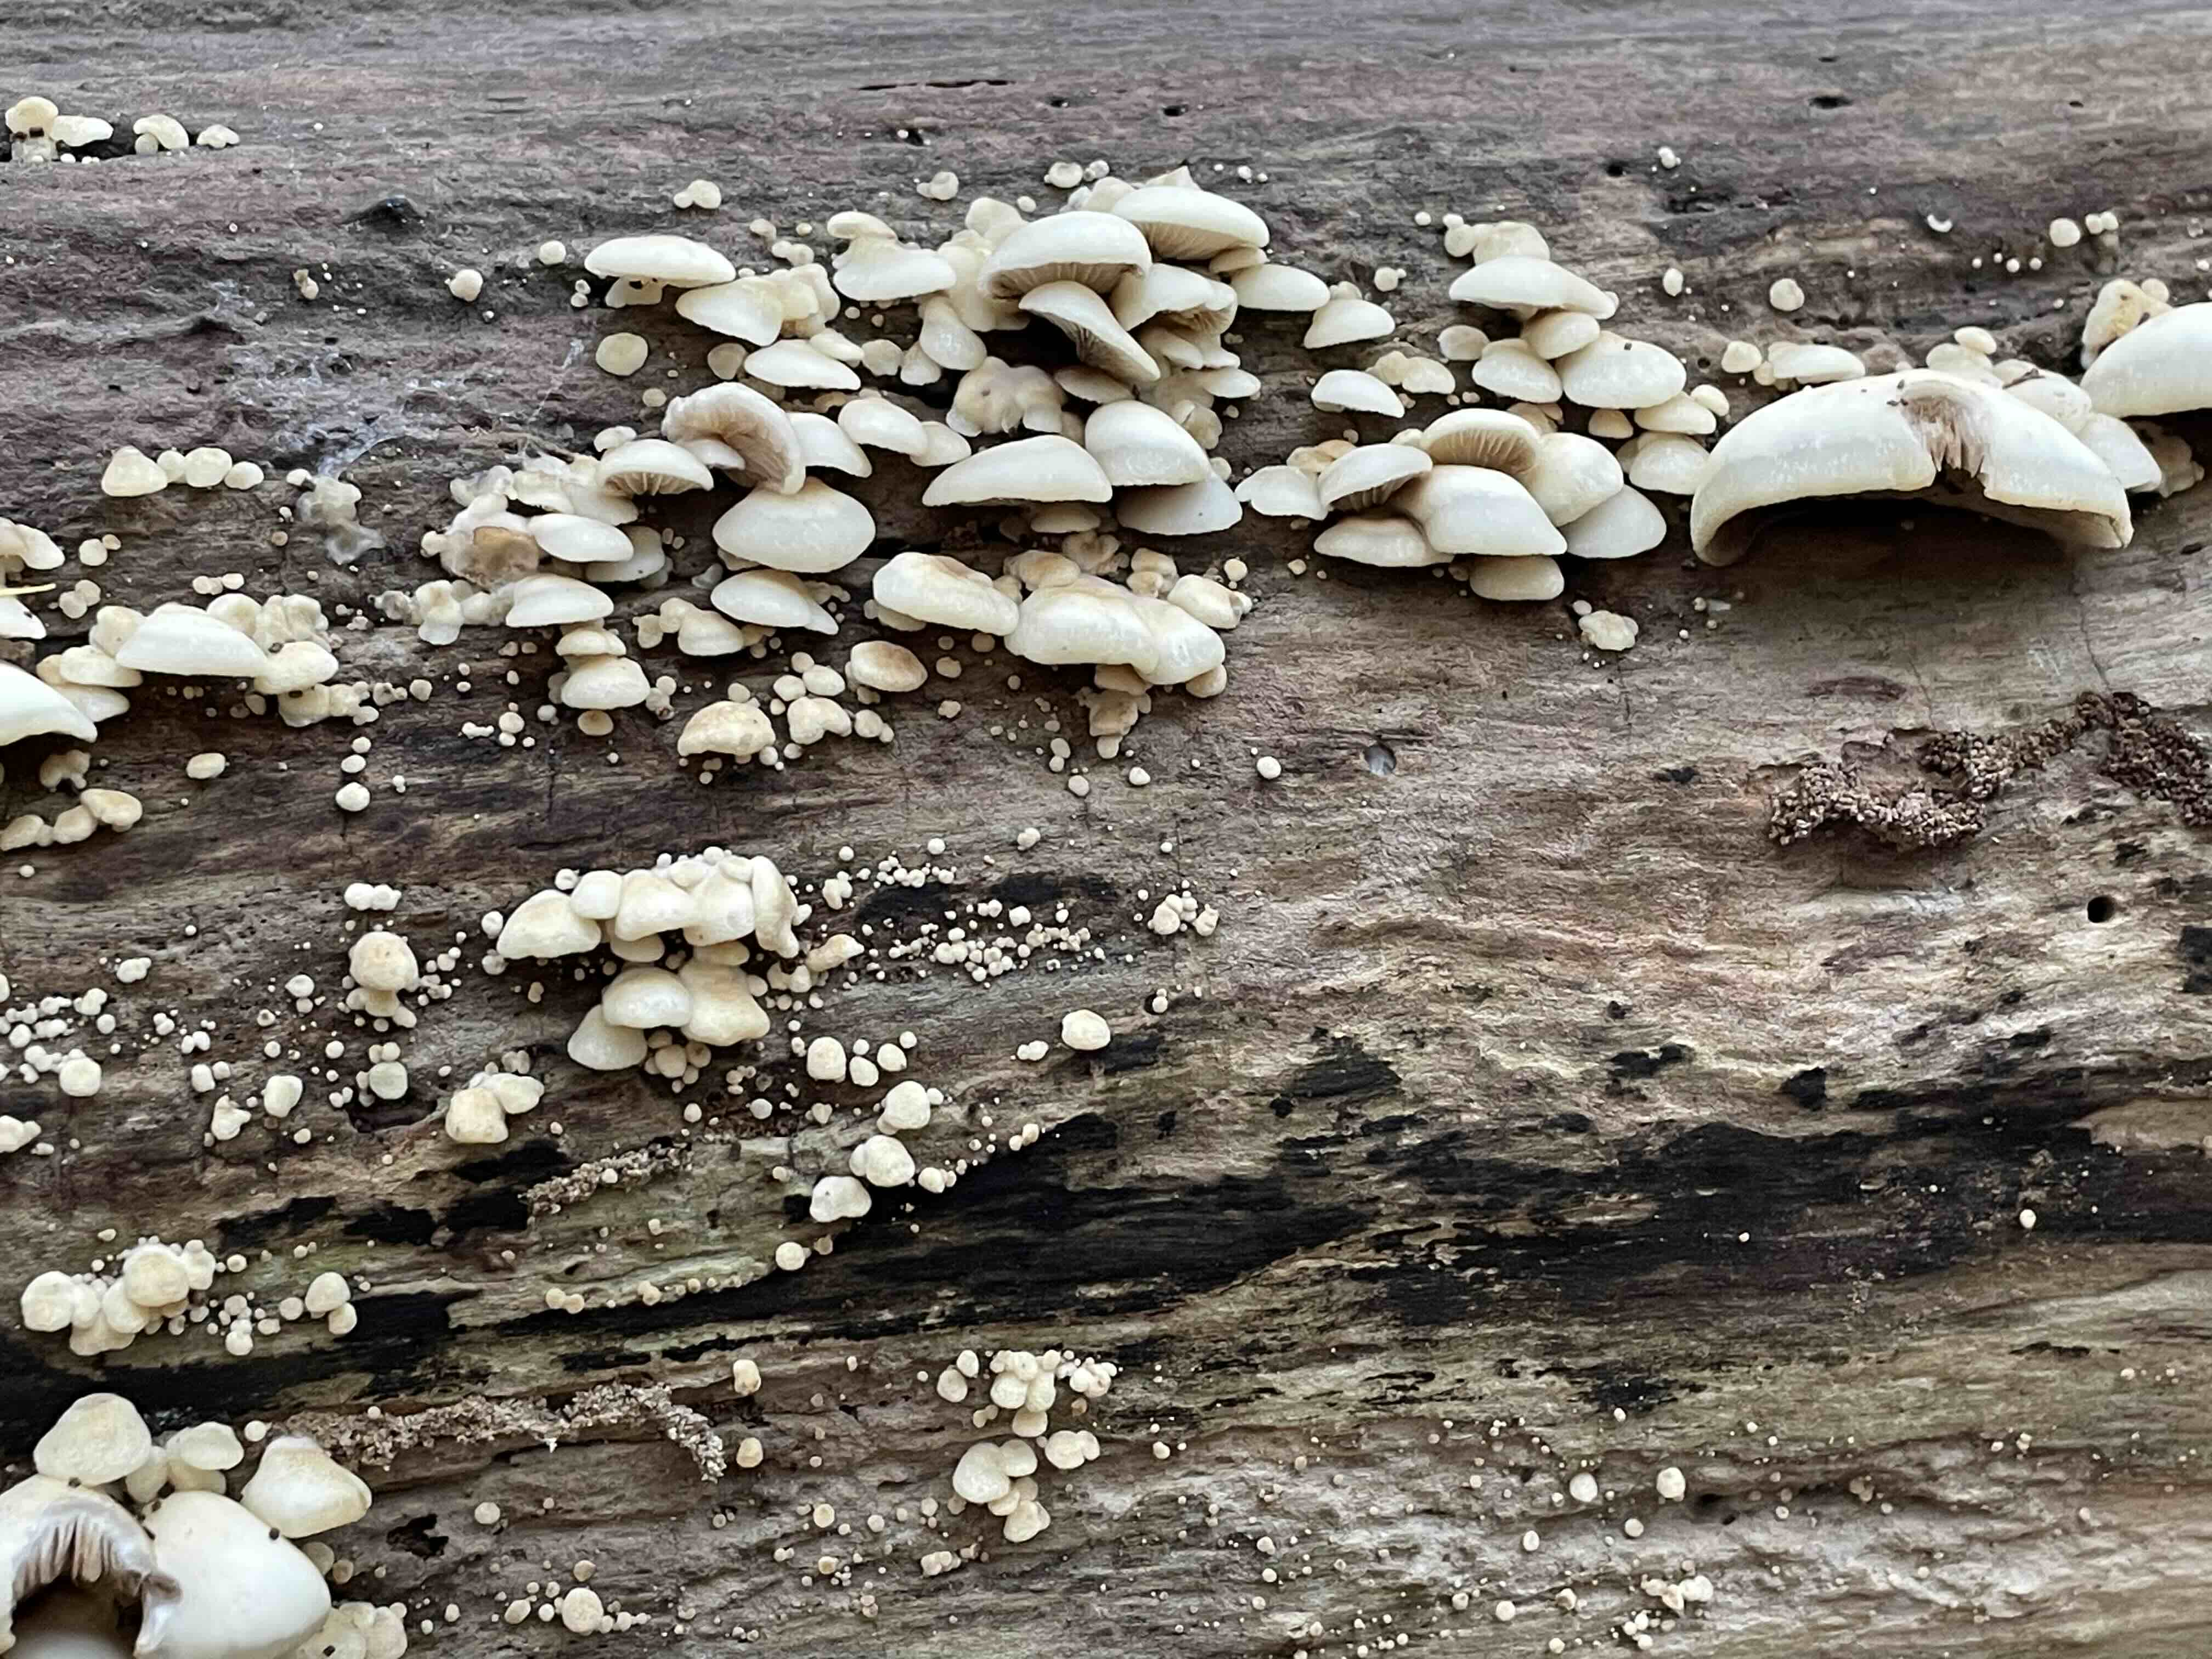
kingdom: Fungi
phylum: Basidiomycota
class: Agaricomycetes
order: Agaricales
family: Crepidotaceae
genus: Crepidotus
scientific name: Crepidotus mollis
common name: blød muslingesvamp
